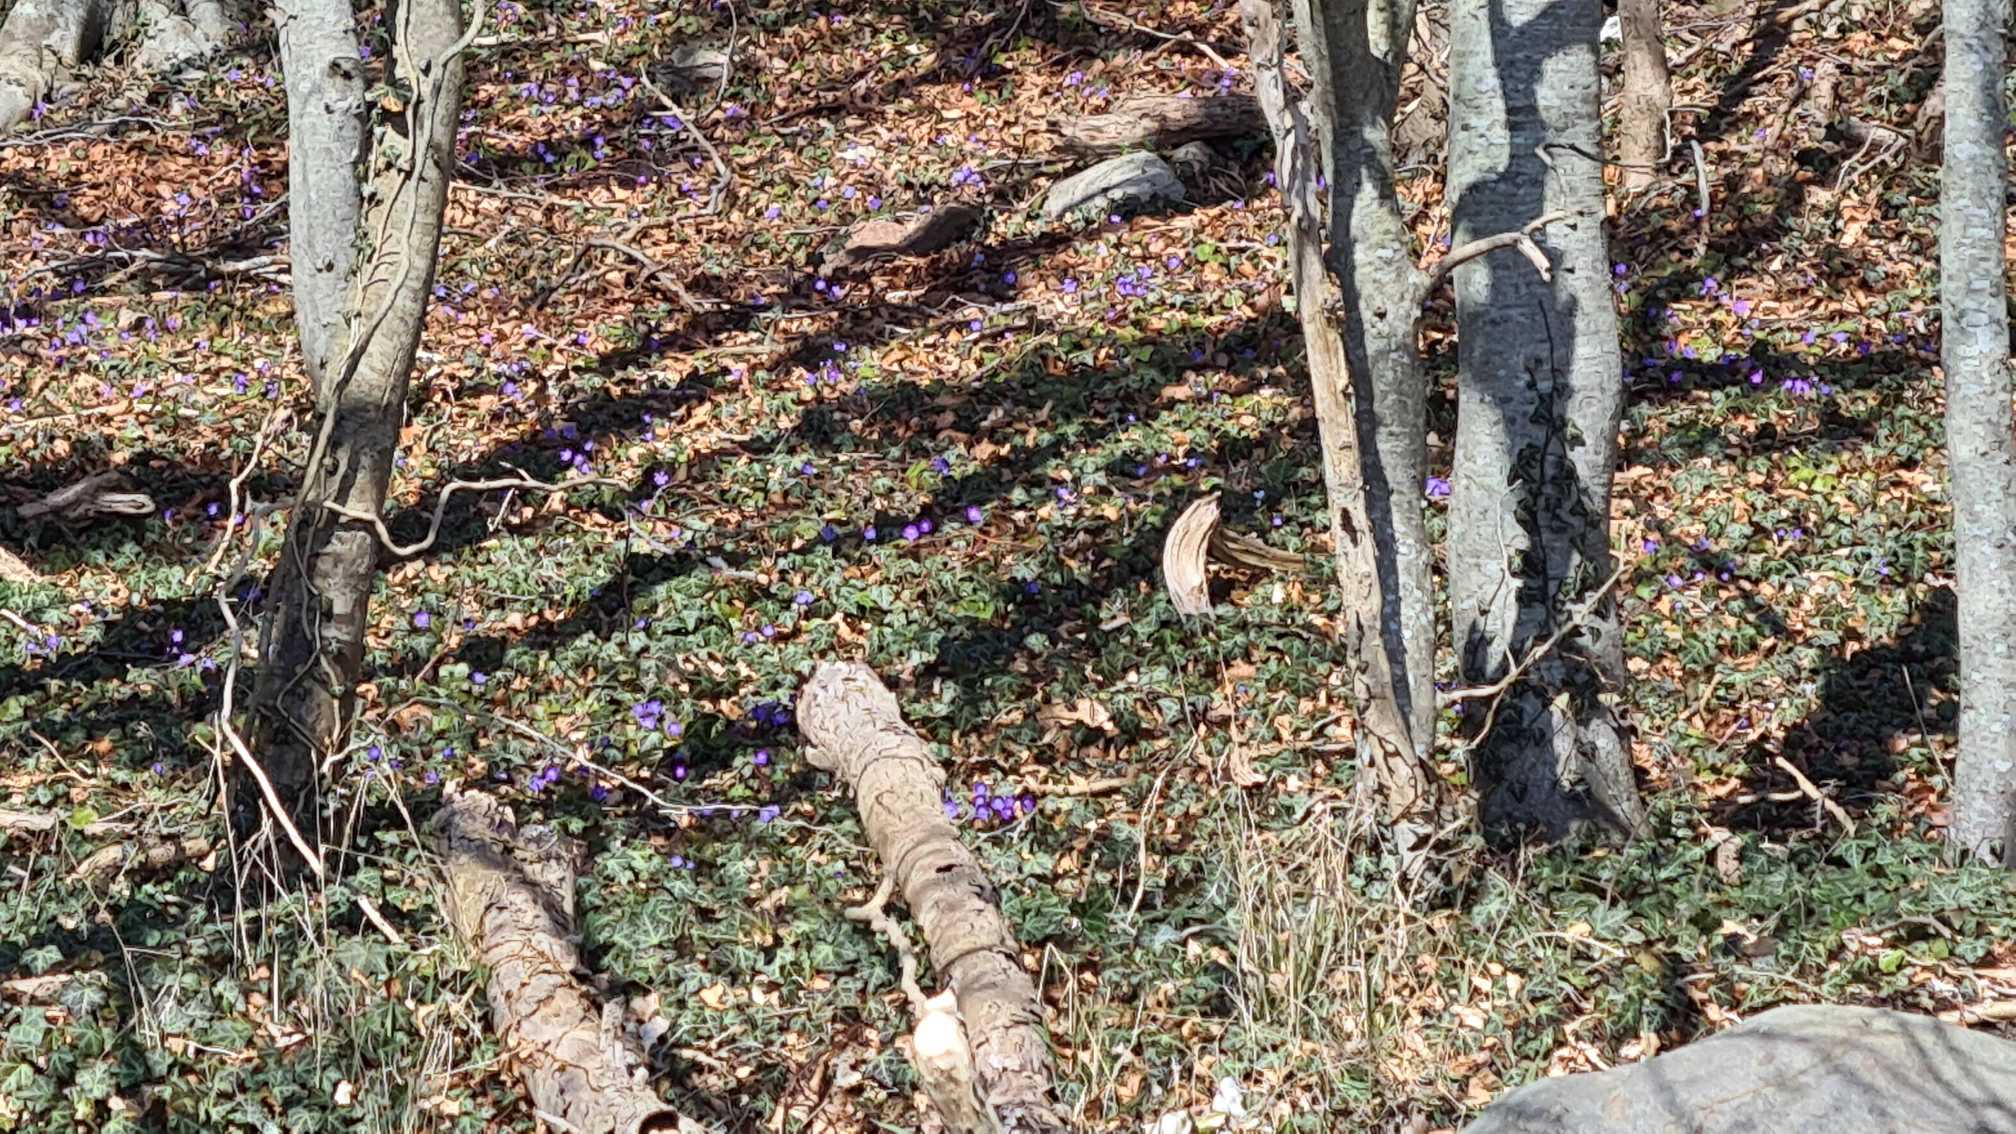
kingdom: Plantae
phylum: Tracheophyta
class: Magnoliopsida
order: Ranunculales
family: Ranunculaceae
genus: Hepatica
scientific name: Hepatica nobilis
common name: Blå anemone
